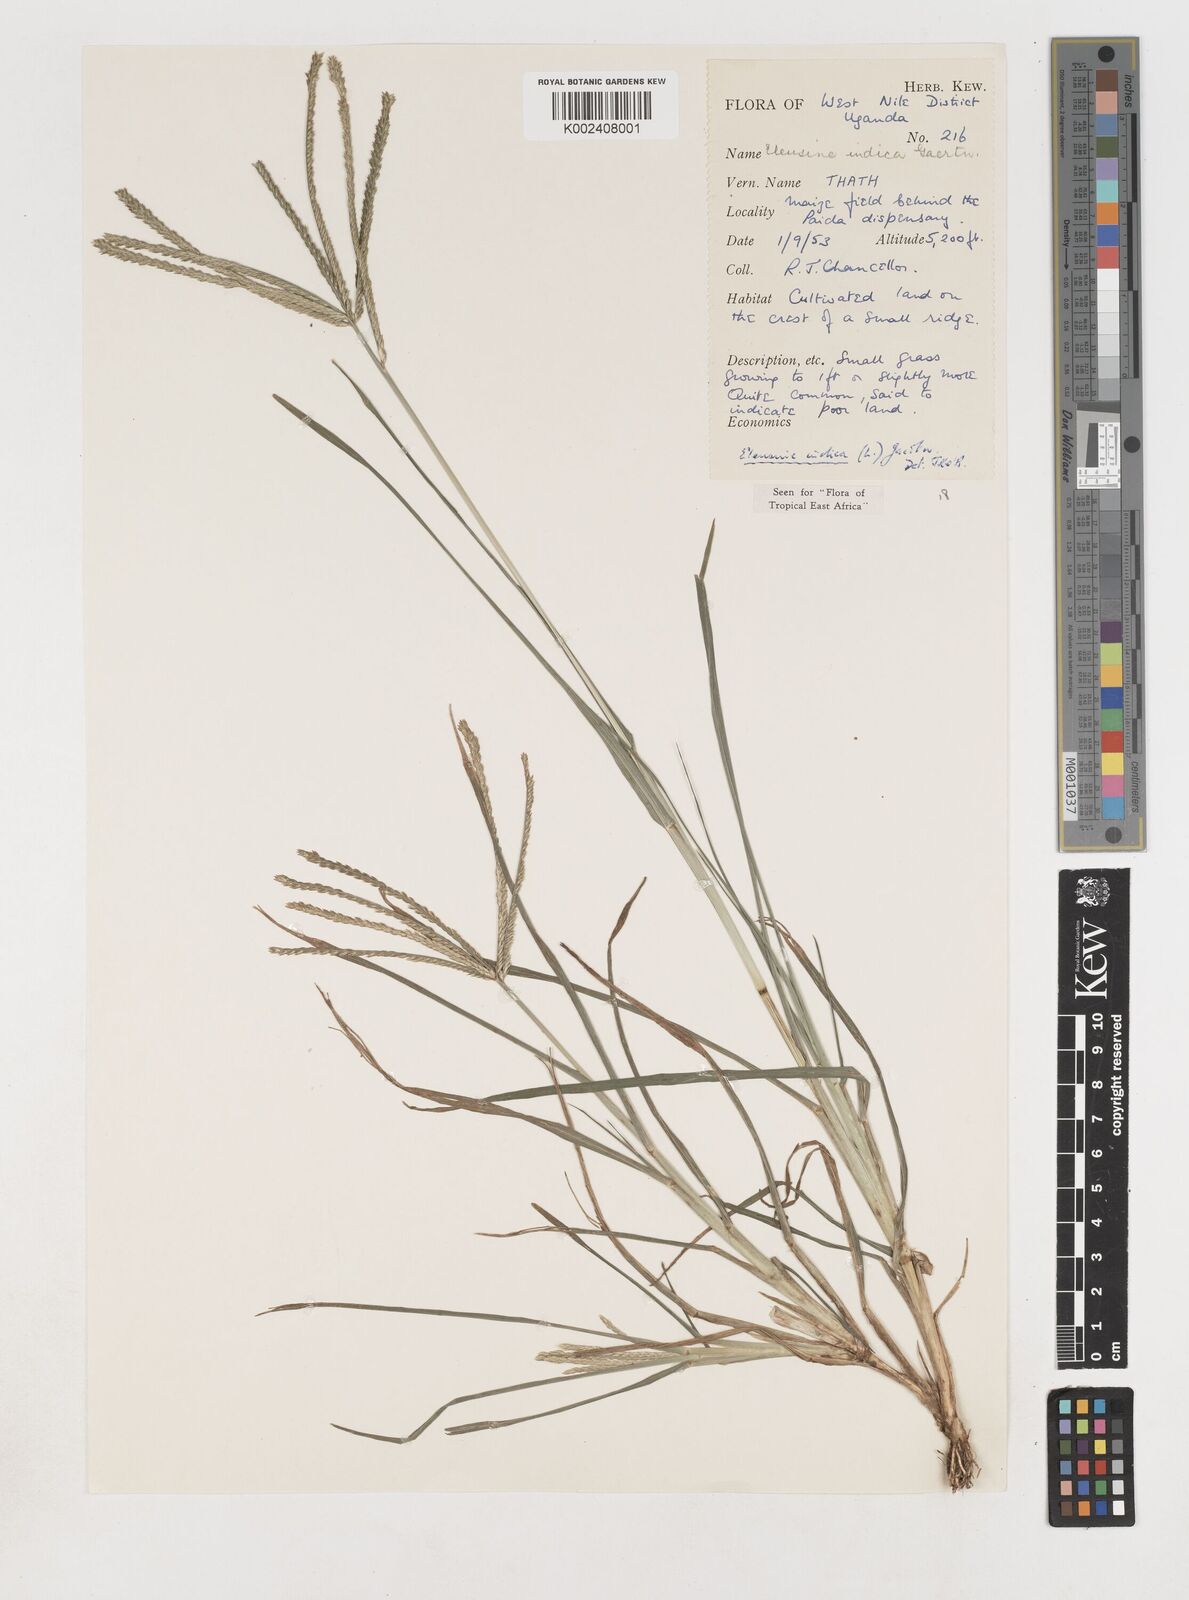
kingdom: Plantae
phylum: Tracheophyta
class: Liliopsida
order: Poales
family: Poaceae
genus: Eleusine
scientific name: Eleusine indica
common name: Yard-grass
